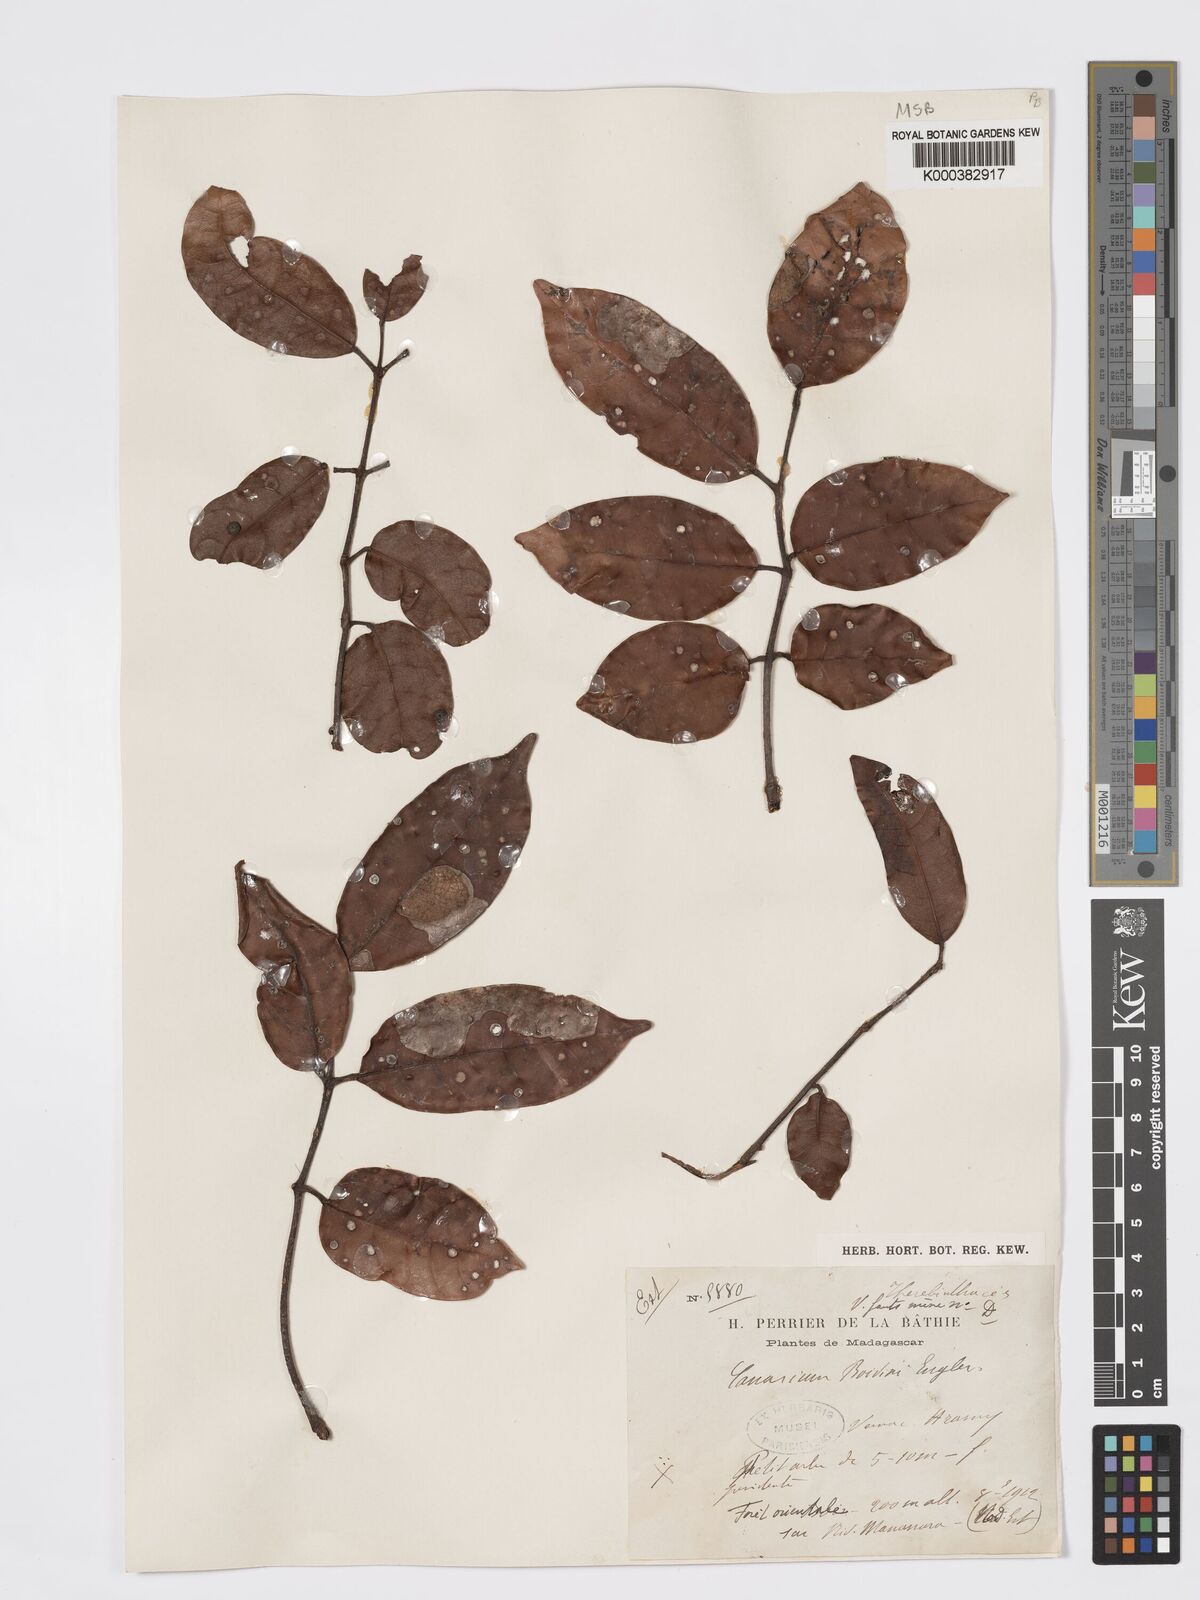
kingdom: Plantae
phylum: Tracheophyta
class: Magnoliopsida
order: Sapindales
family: Burseraceae
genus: Canarium
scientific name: Canarium madagascariense
